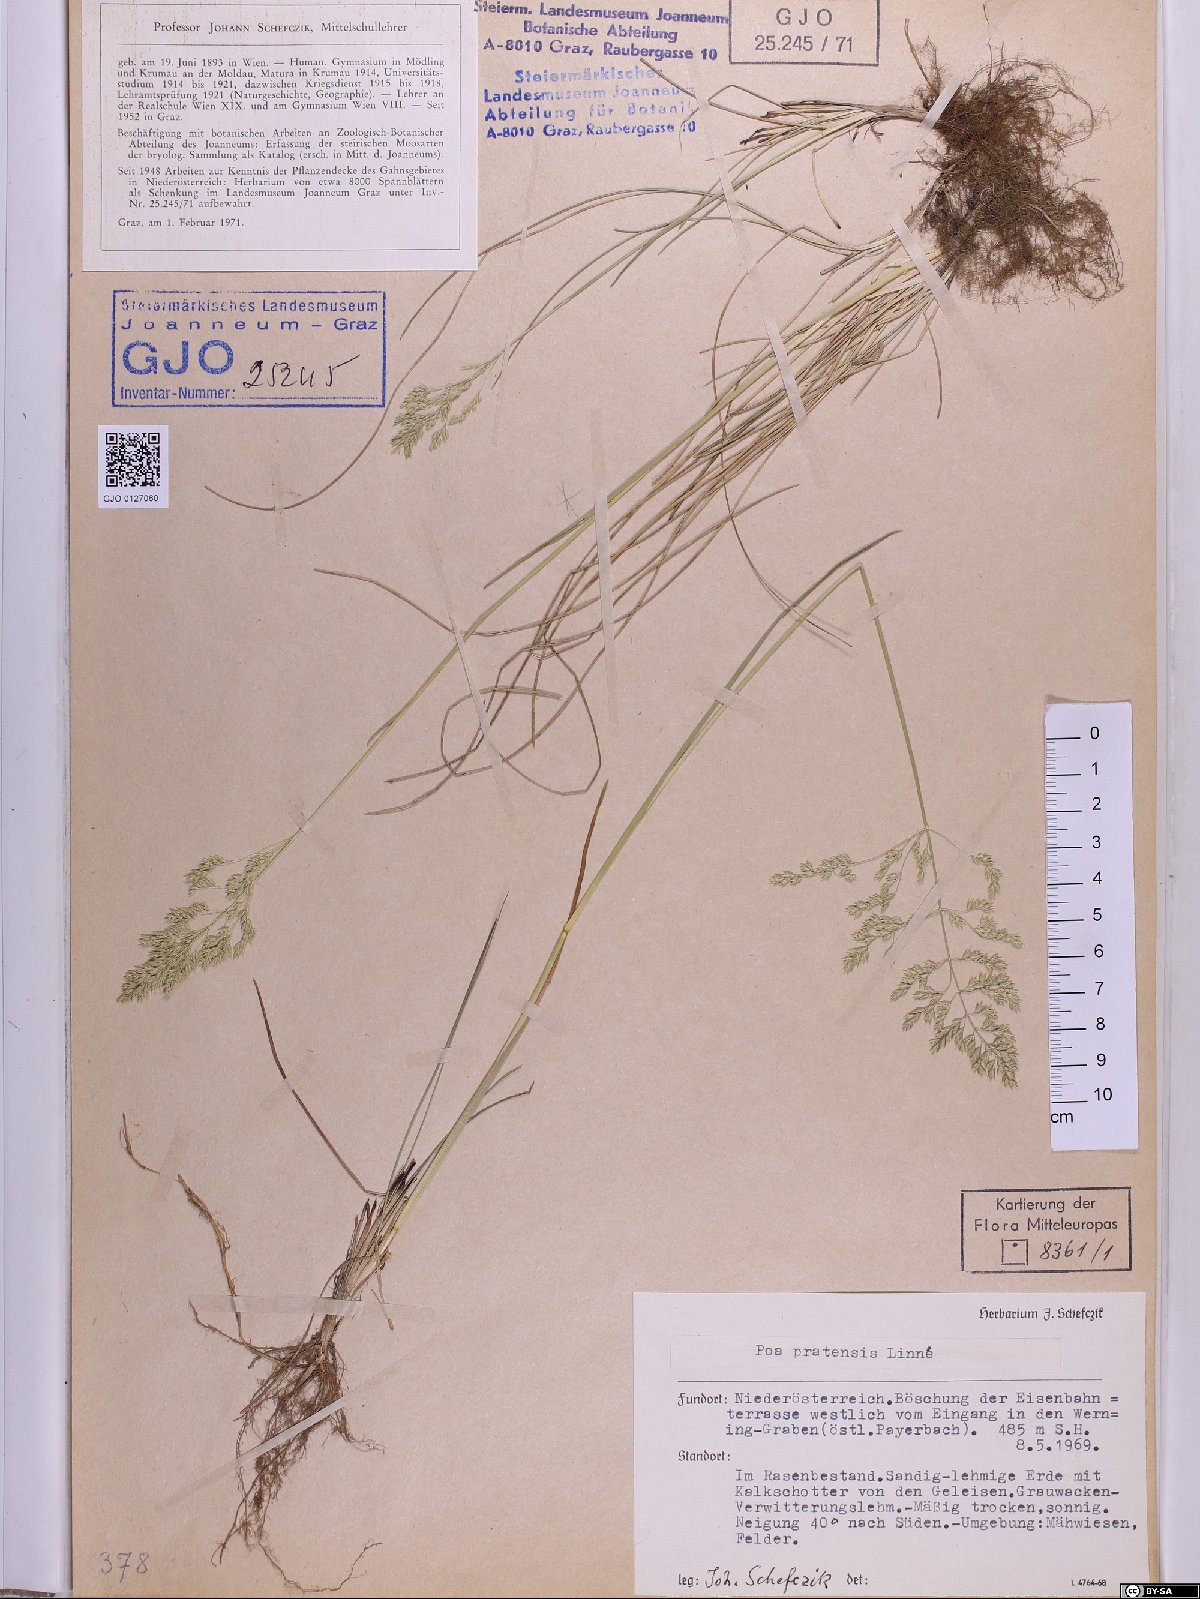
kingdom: Plantae
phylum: Tracheophyta
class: Liliopsida
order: Poales
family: Poaceae
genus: Poa
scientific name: Poa pratensis
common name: Kentucky bluegrass
